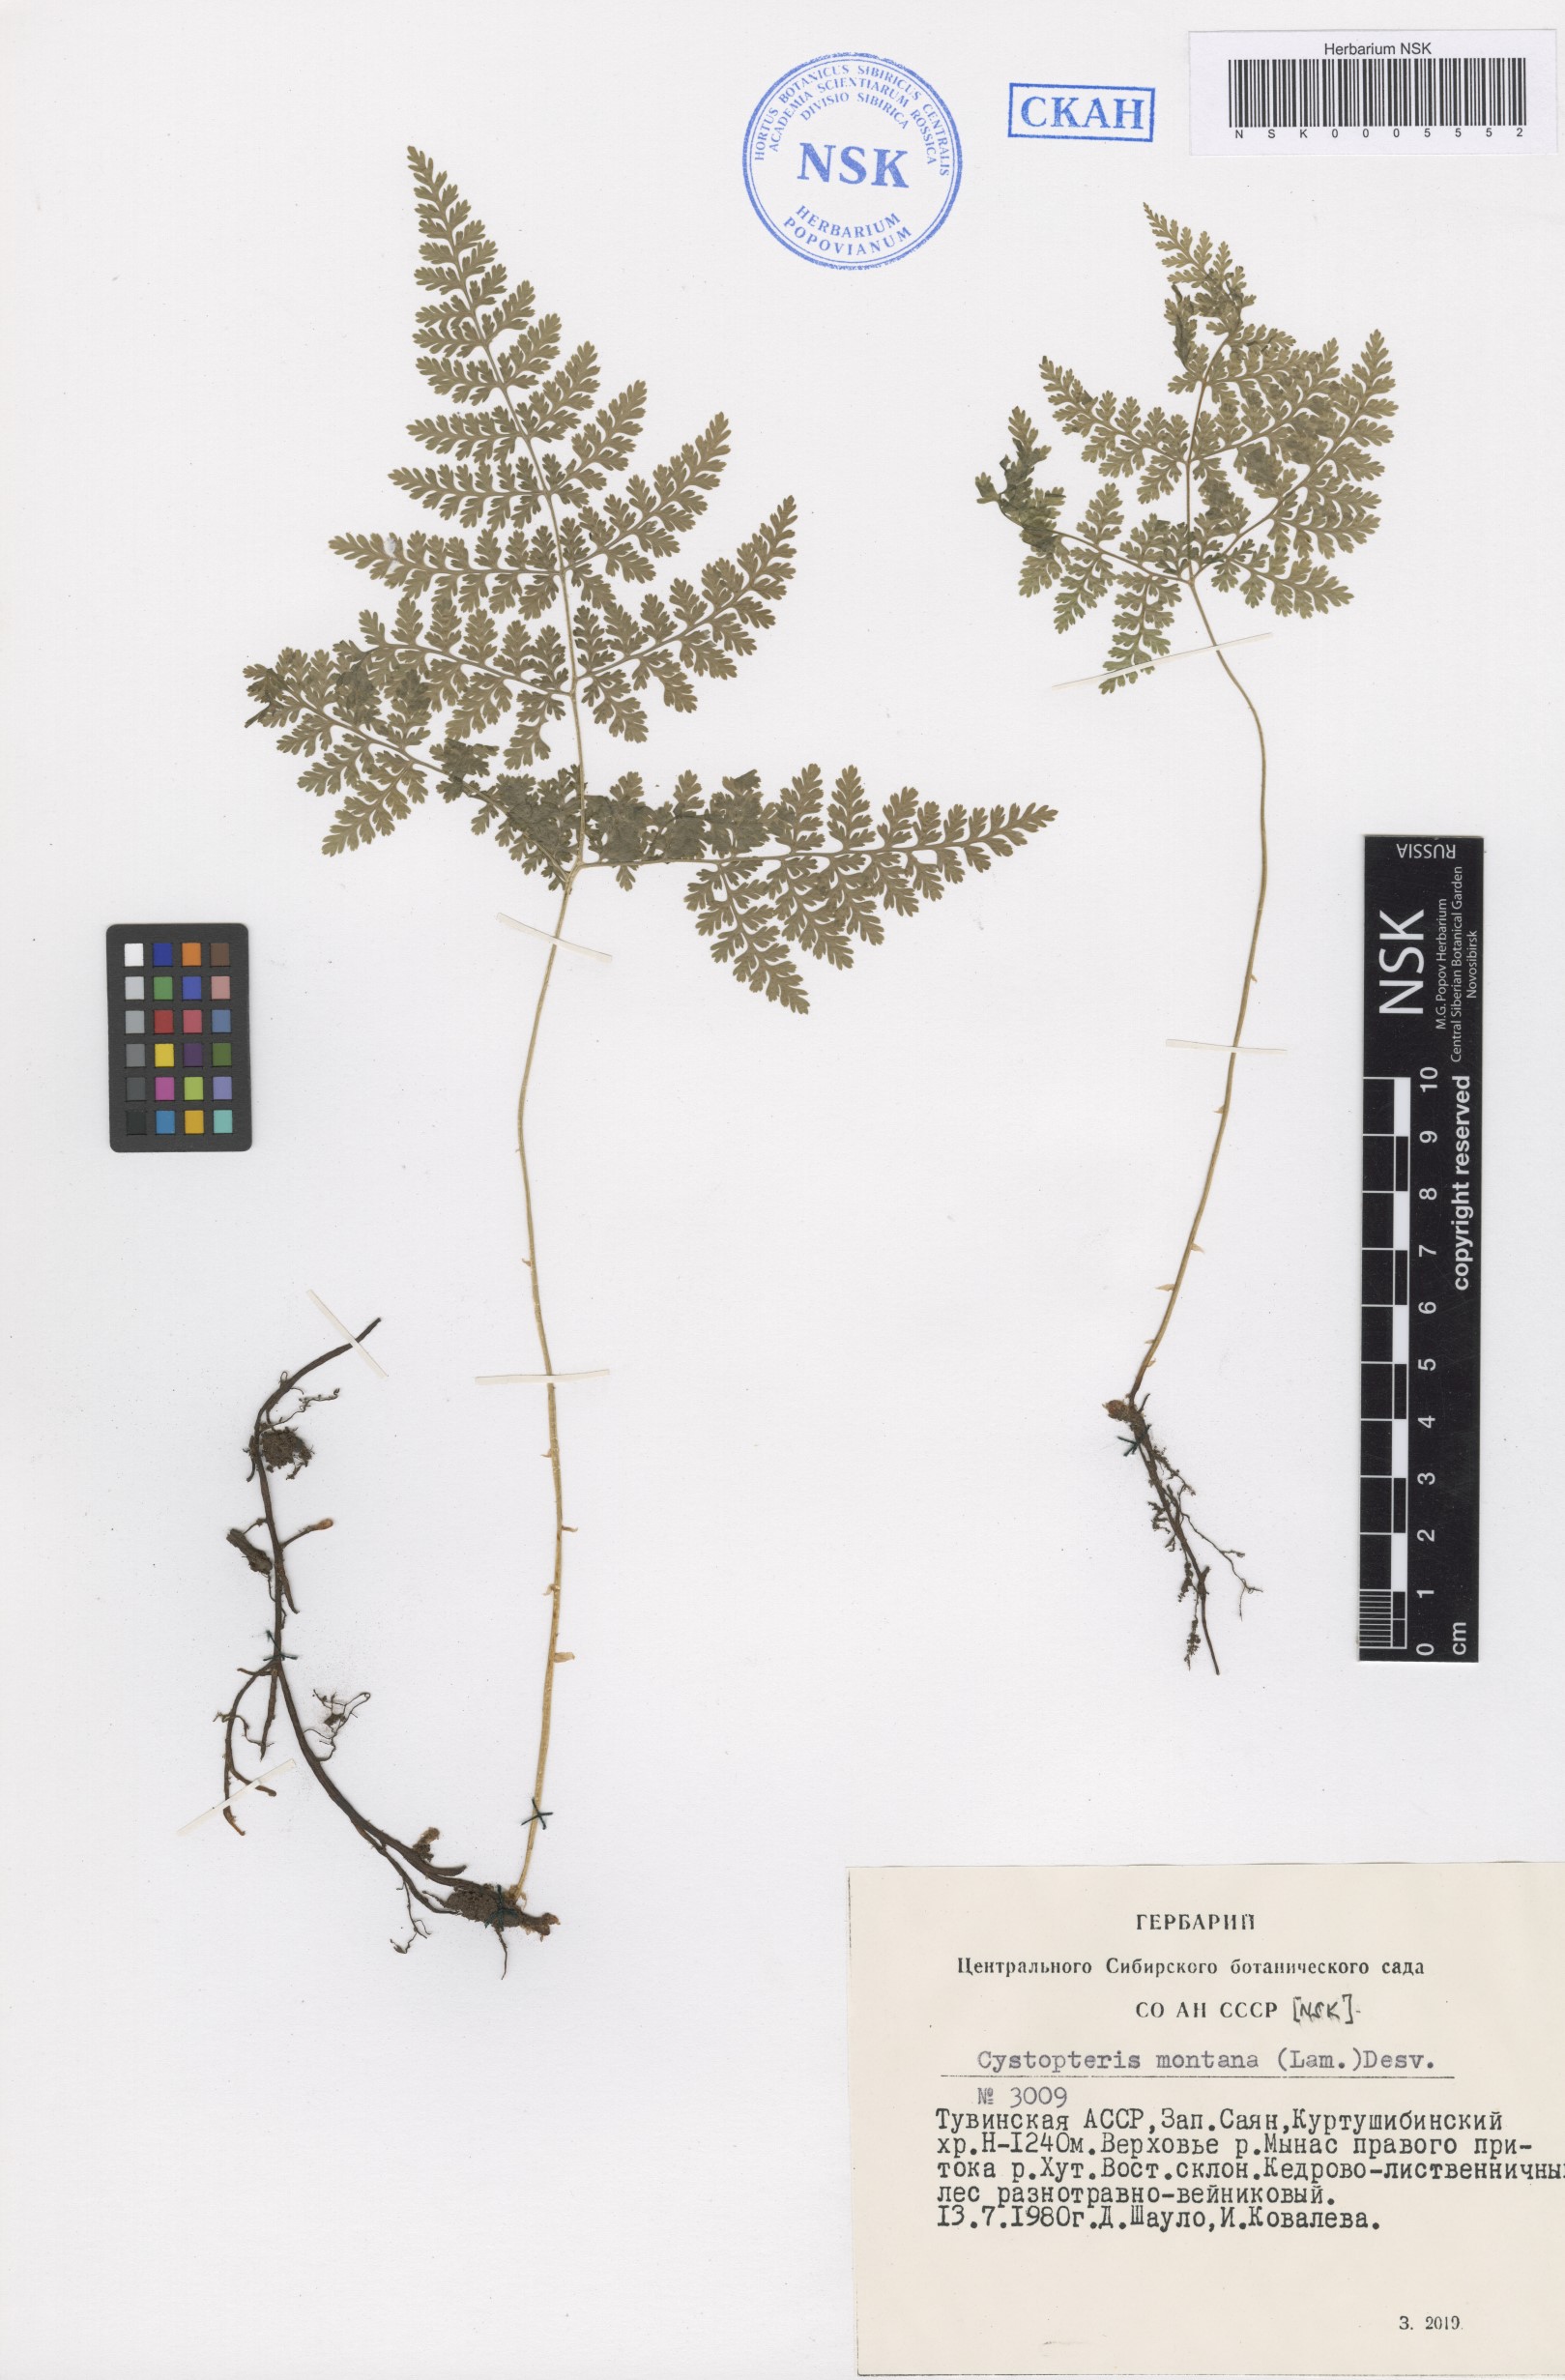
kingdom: Plantae
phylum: Tracheophyta
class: Polypodiopsida
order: Polypodiales
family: Cystopteridaceae
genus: Cystopteris
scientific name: Cystopteris montana
